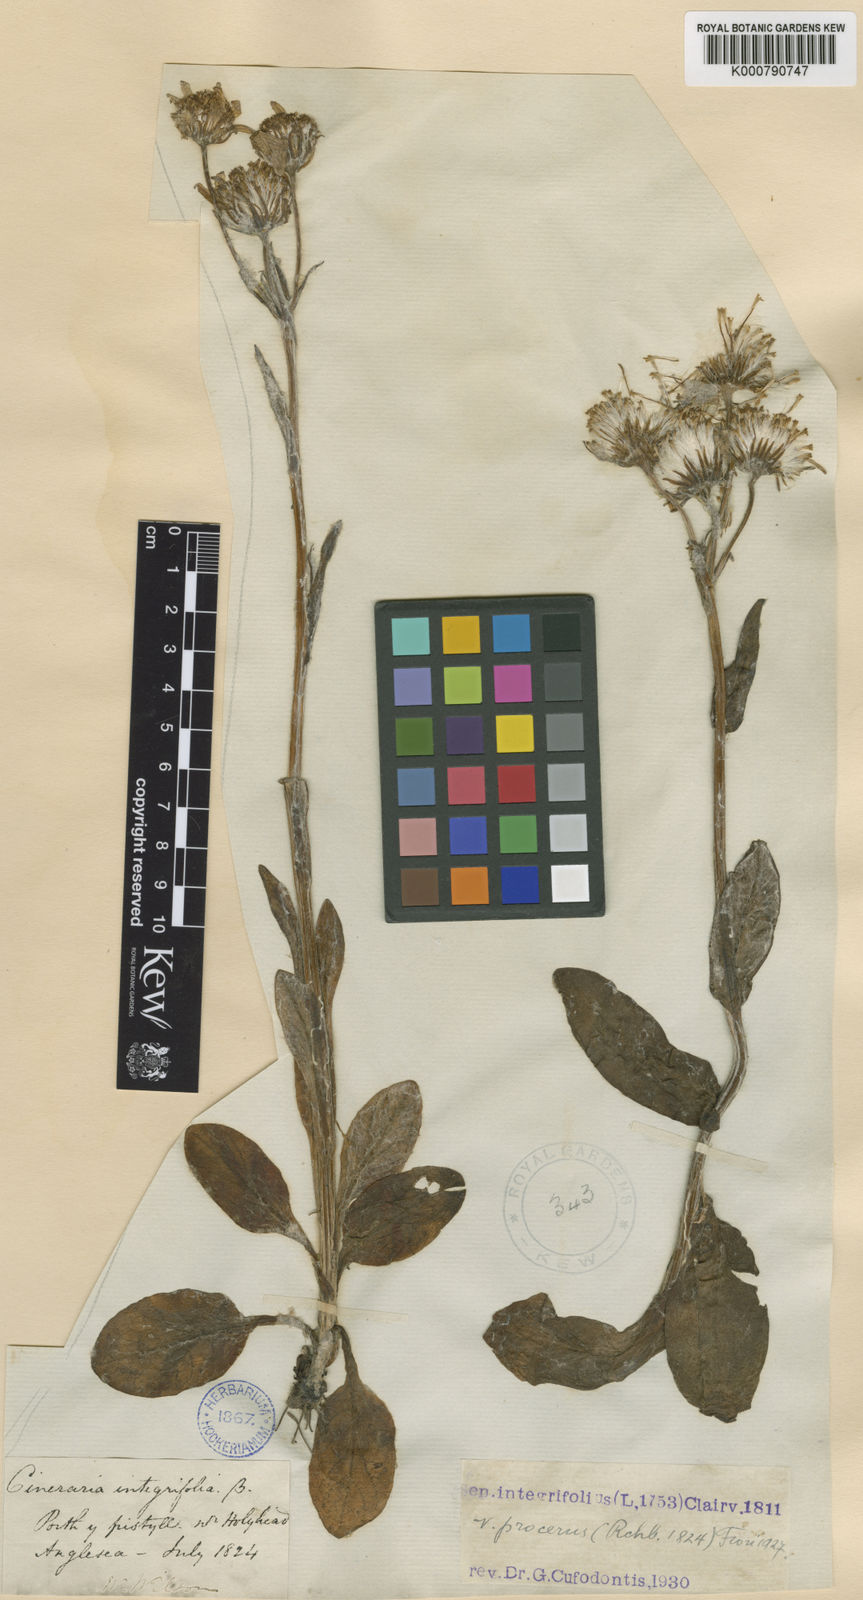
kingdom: Plantae
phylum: Tracheophyta
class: Magnoliopsida
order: Asterales
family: Asteraceae
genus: Tephroseris
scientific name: Tephroseris integrifolia
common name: Field fleawort
